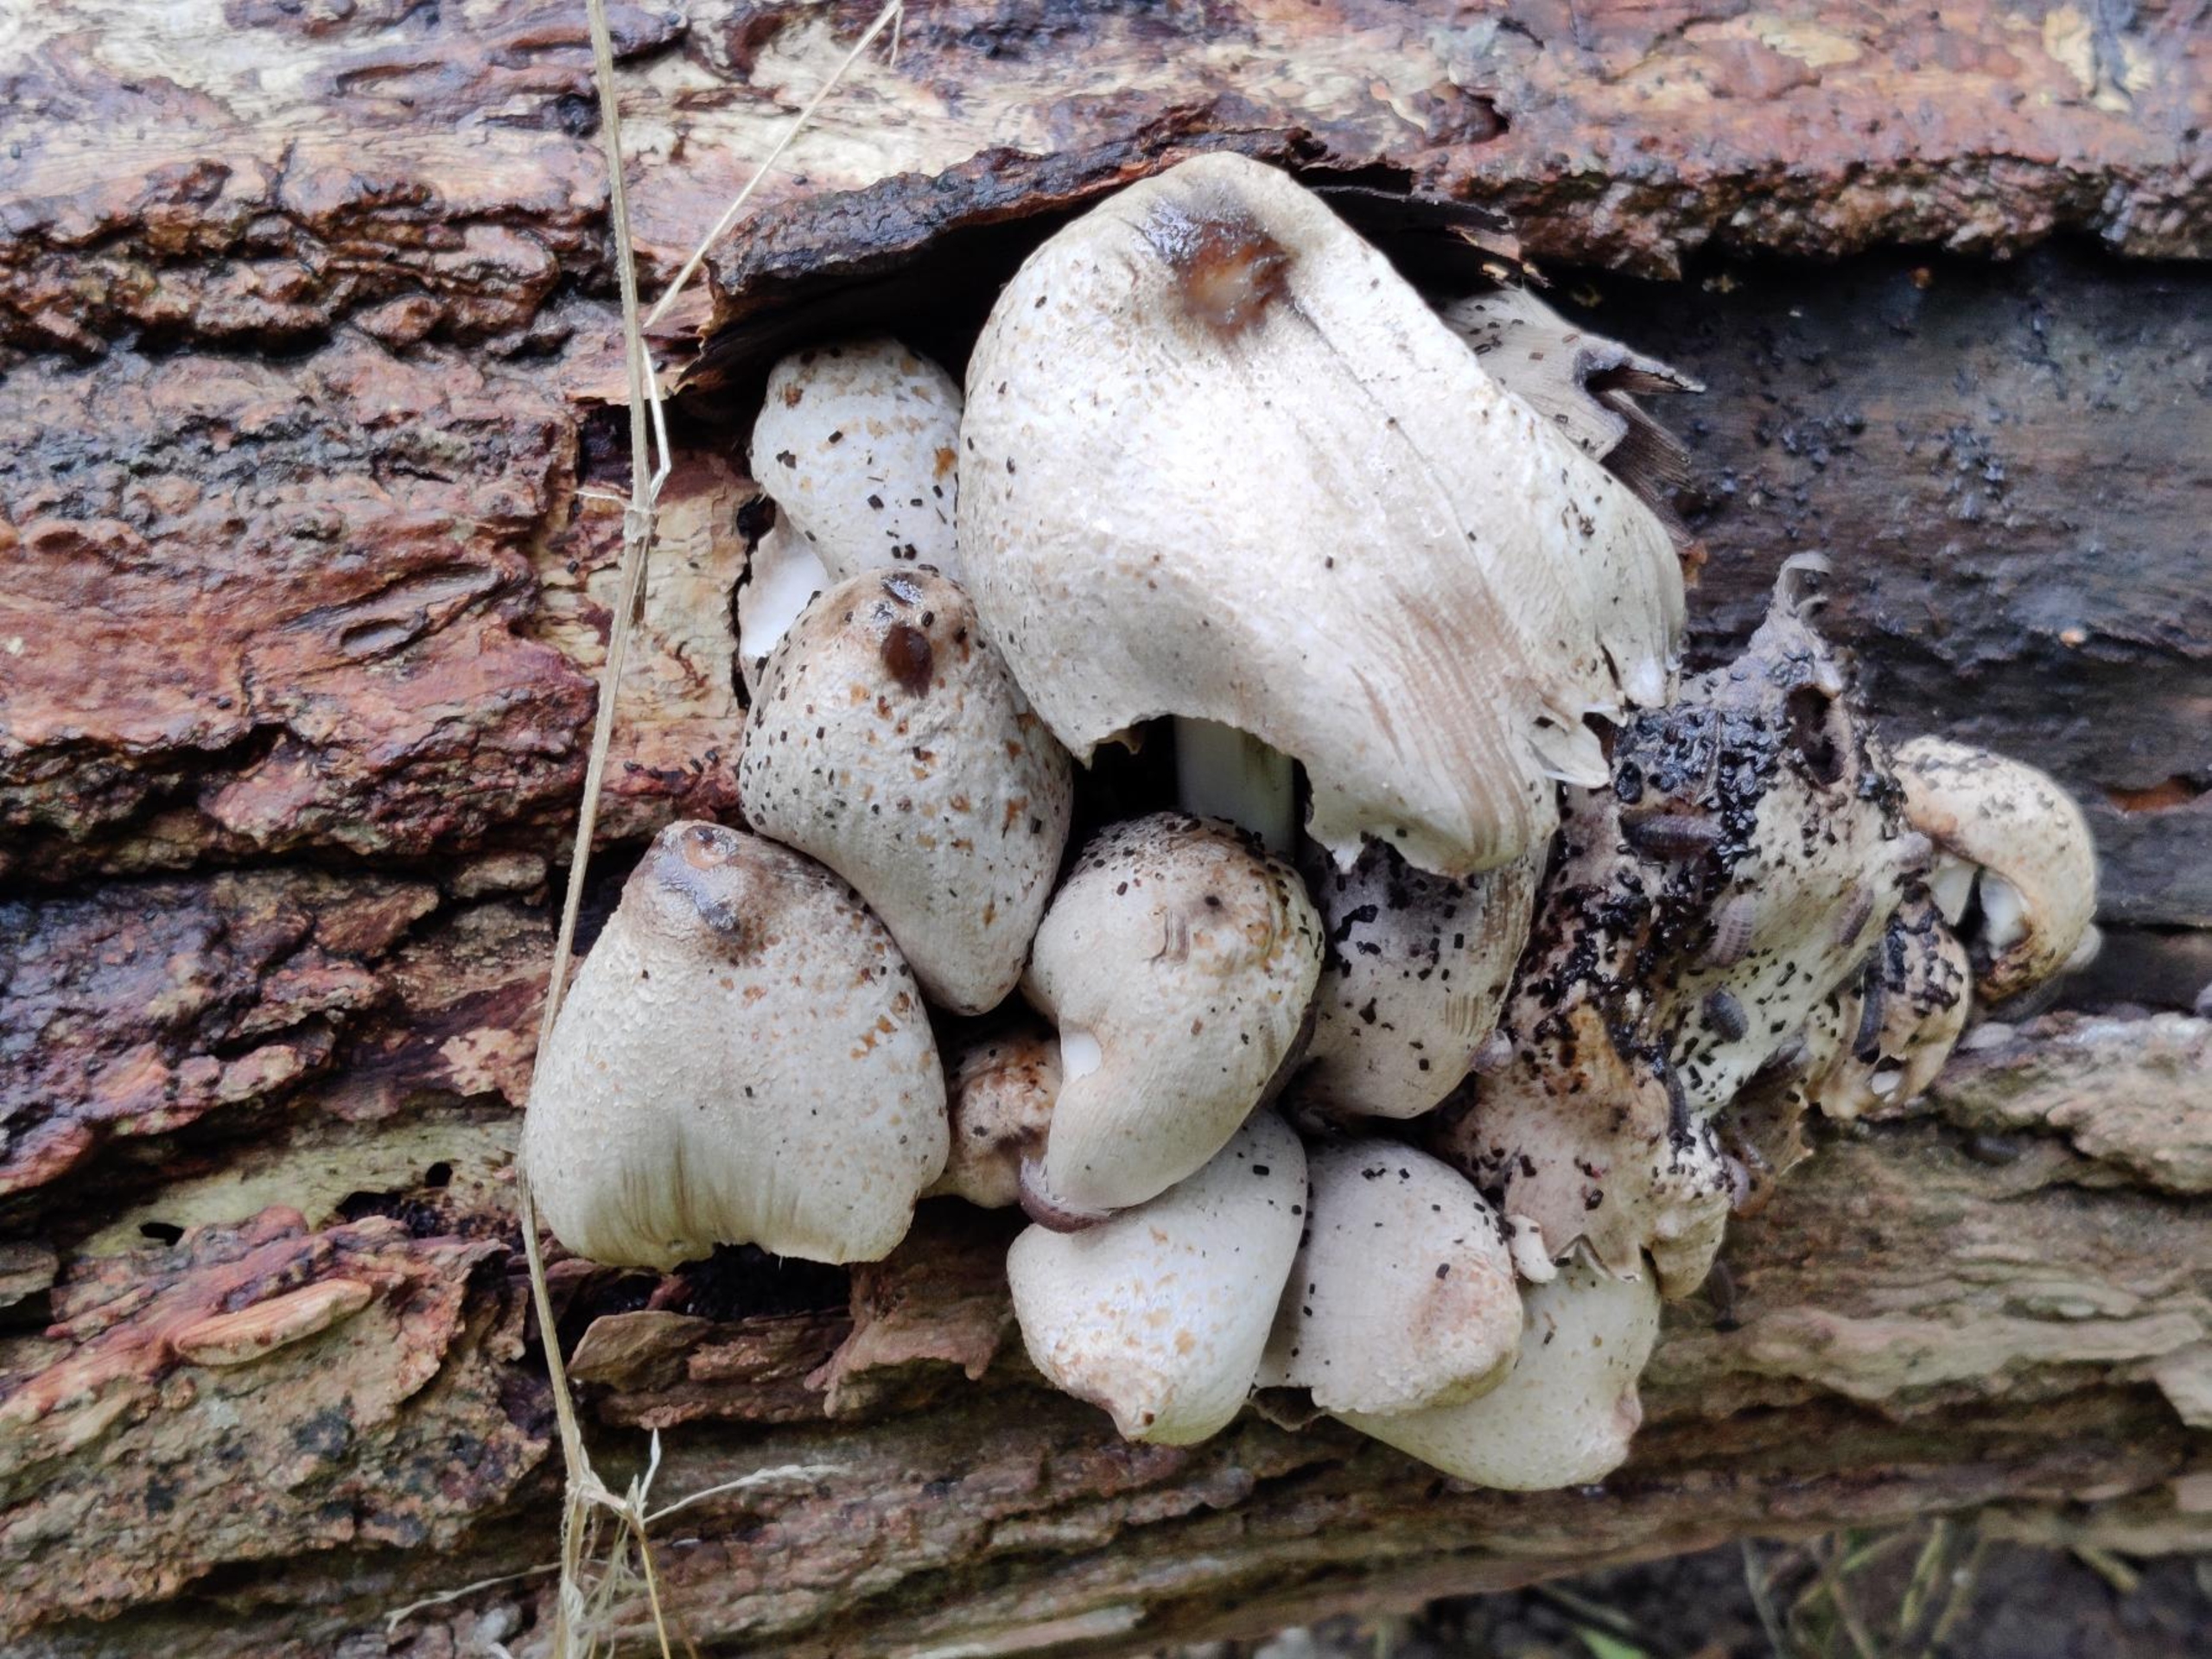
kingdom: Fungi
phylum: Basidiomycota
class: Agaricomycetes
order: Agaricales
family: Psathyrellaceae
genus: Coprinopsis
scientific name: Coprinopsis romagnesiana
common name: Brunskællet blækhat
